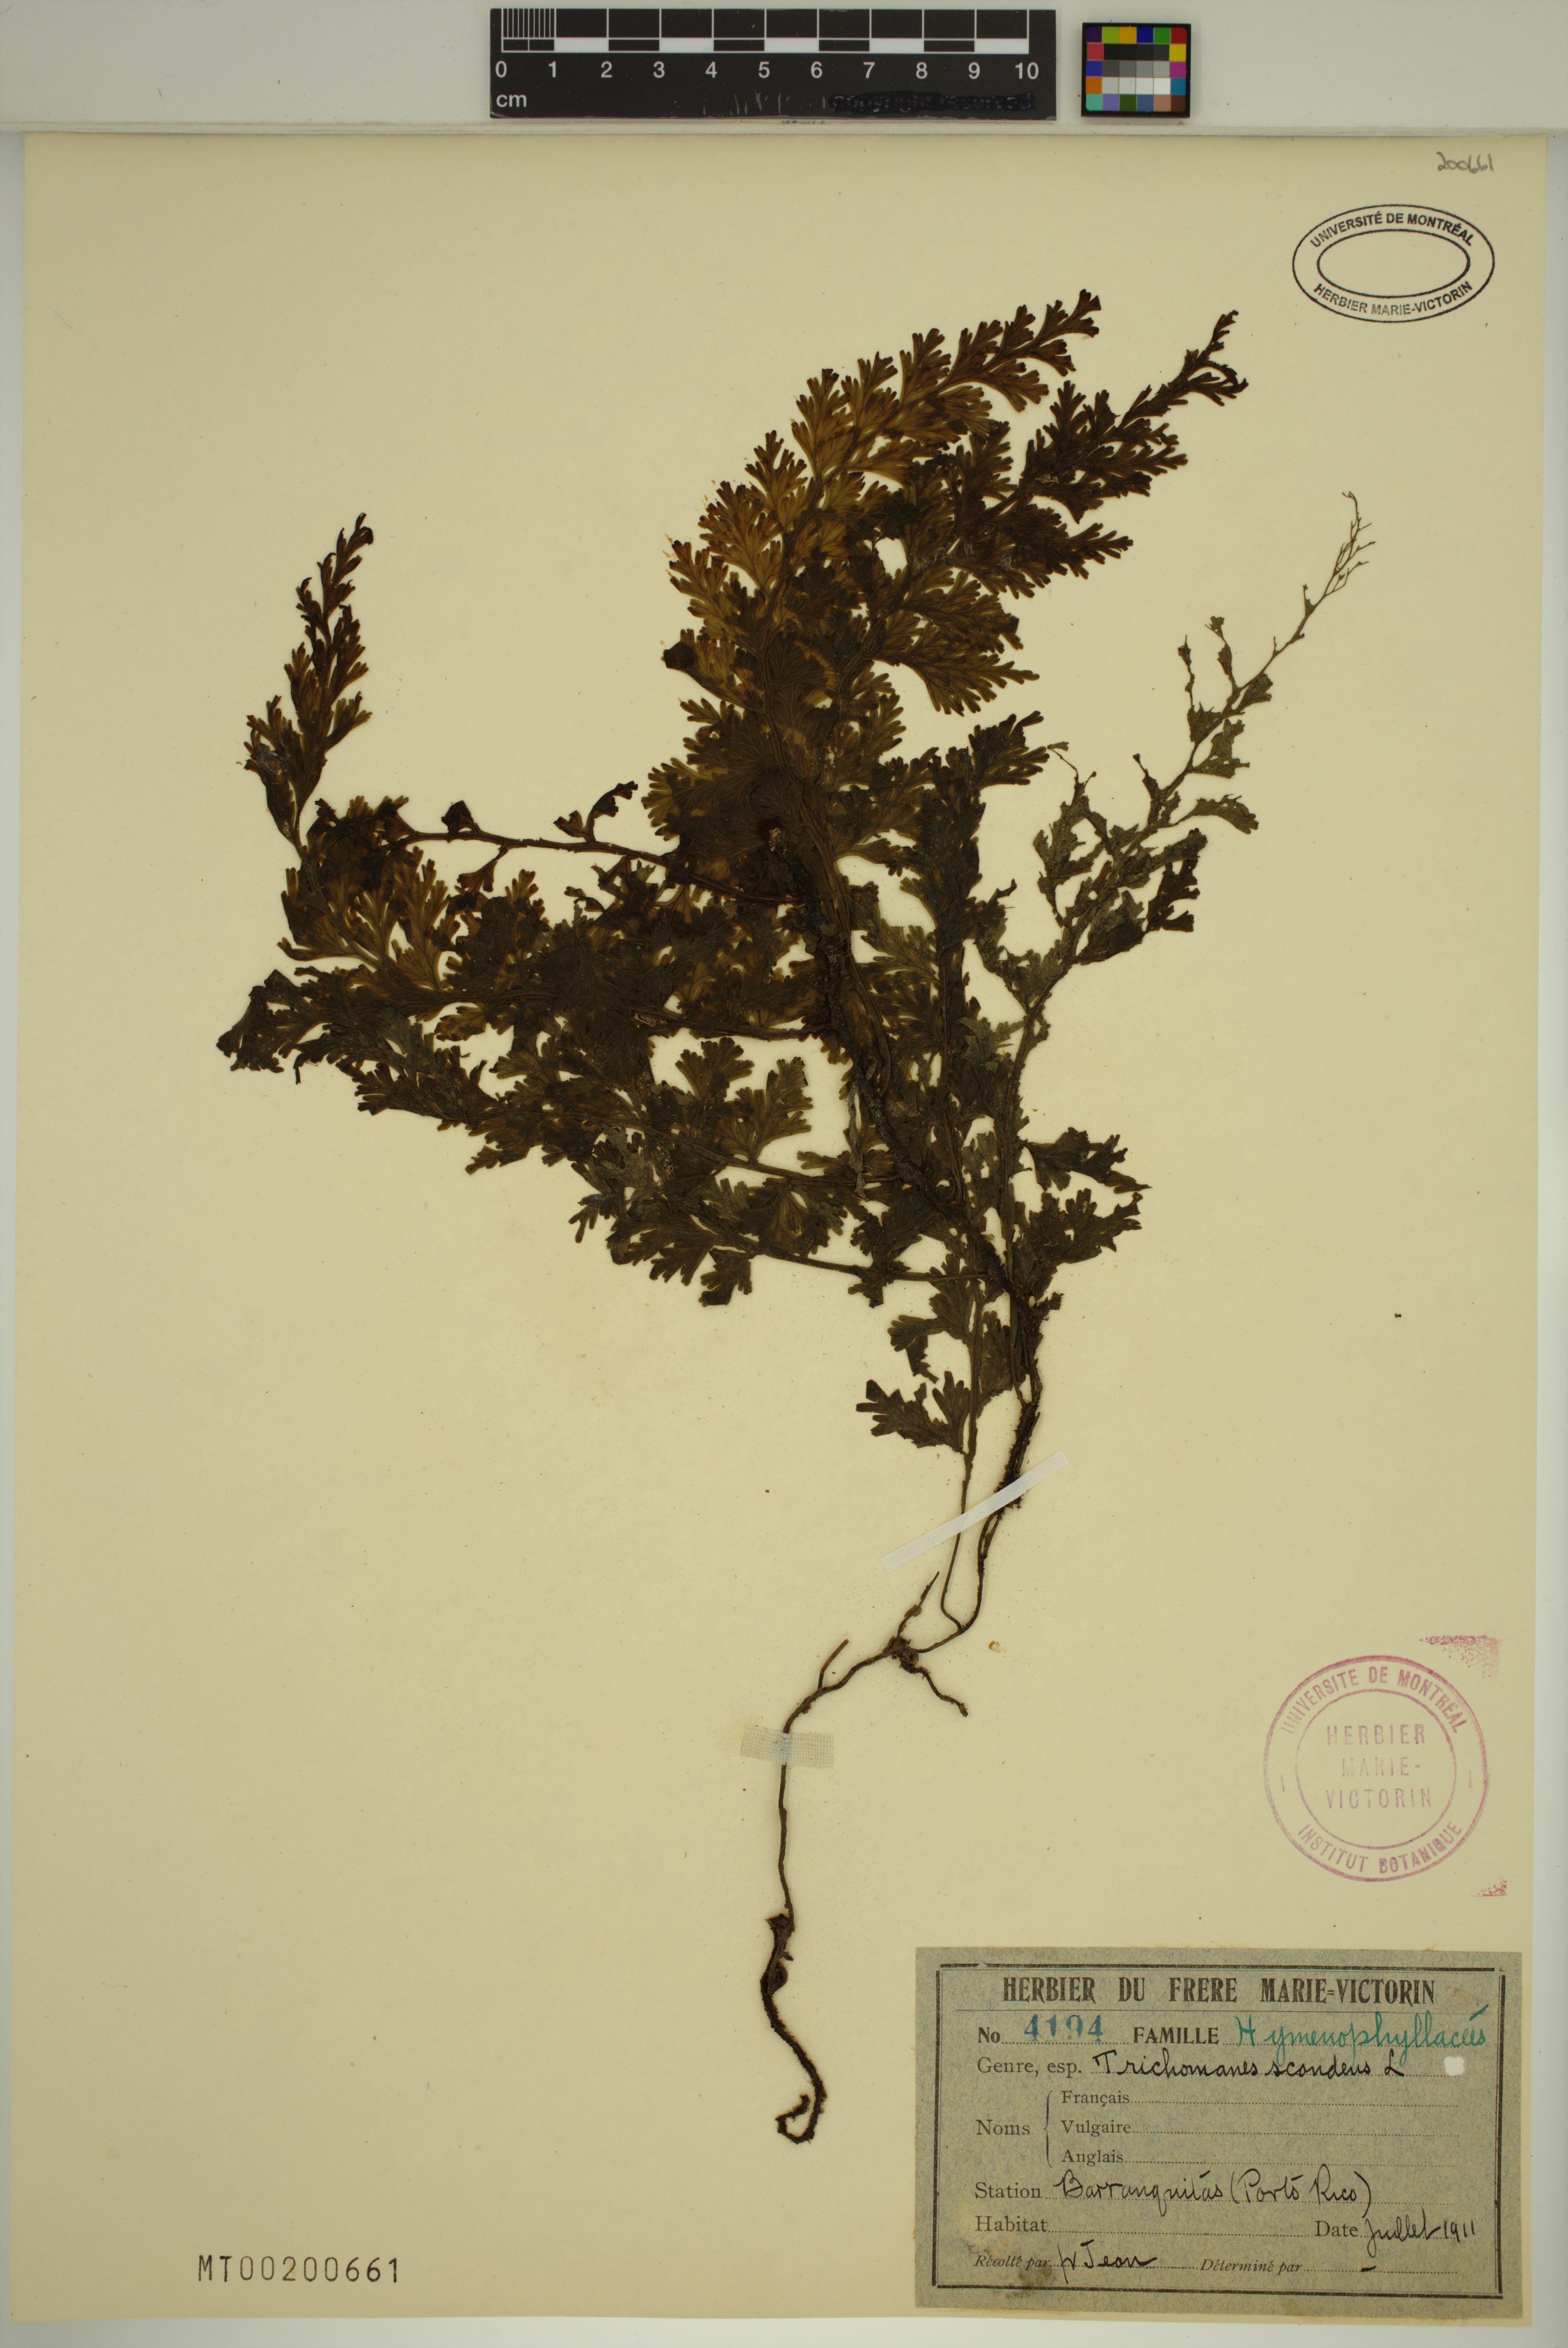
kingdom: Plantae
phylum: Tracheophyta
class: Polypodiopsida
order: Hymenophyllales
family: Hymenophyllaceae
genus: Trichomanes
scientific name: Trichomanes scandens
